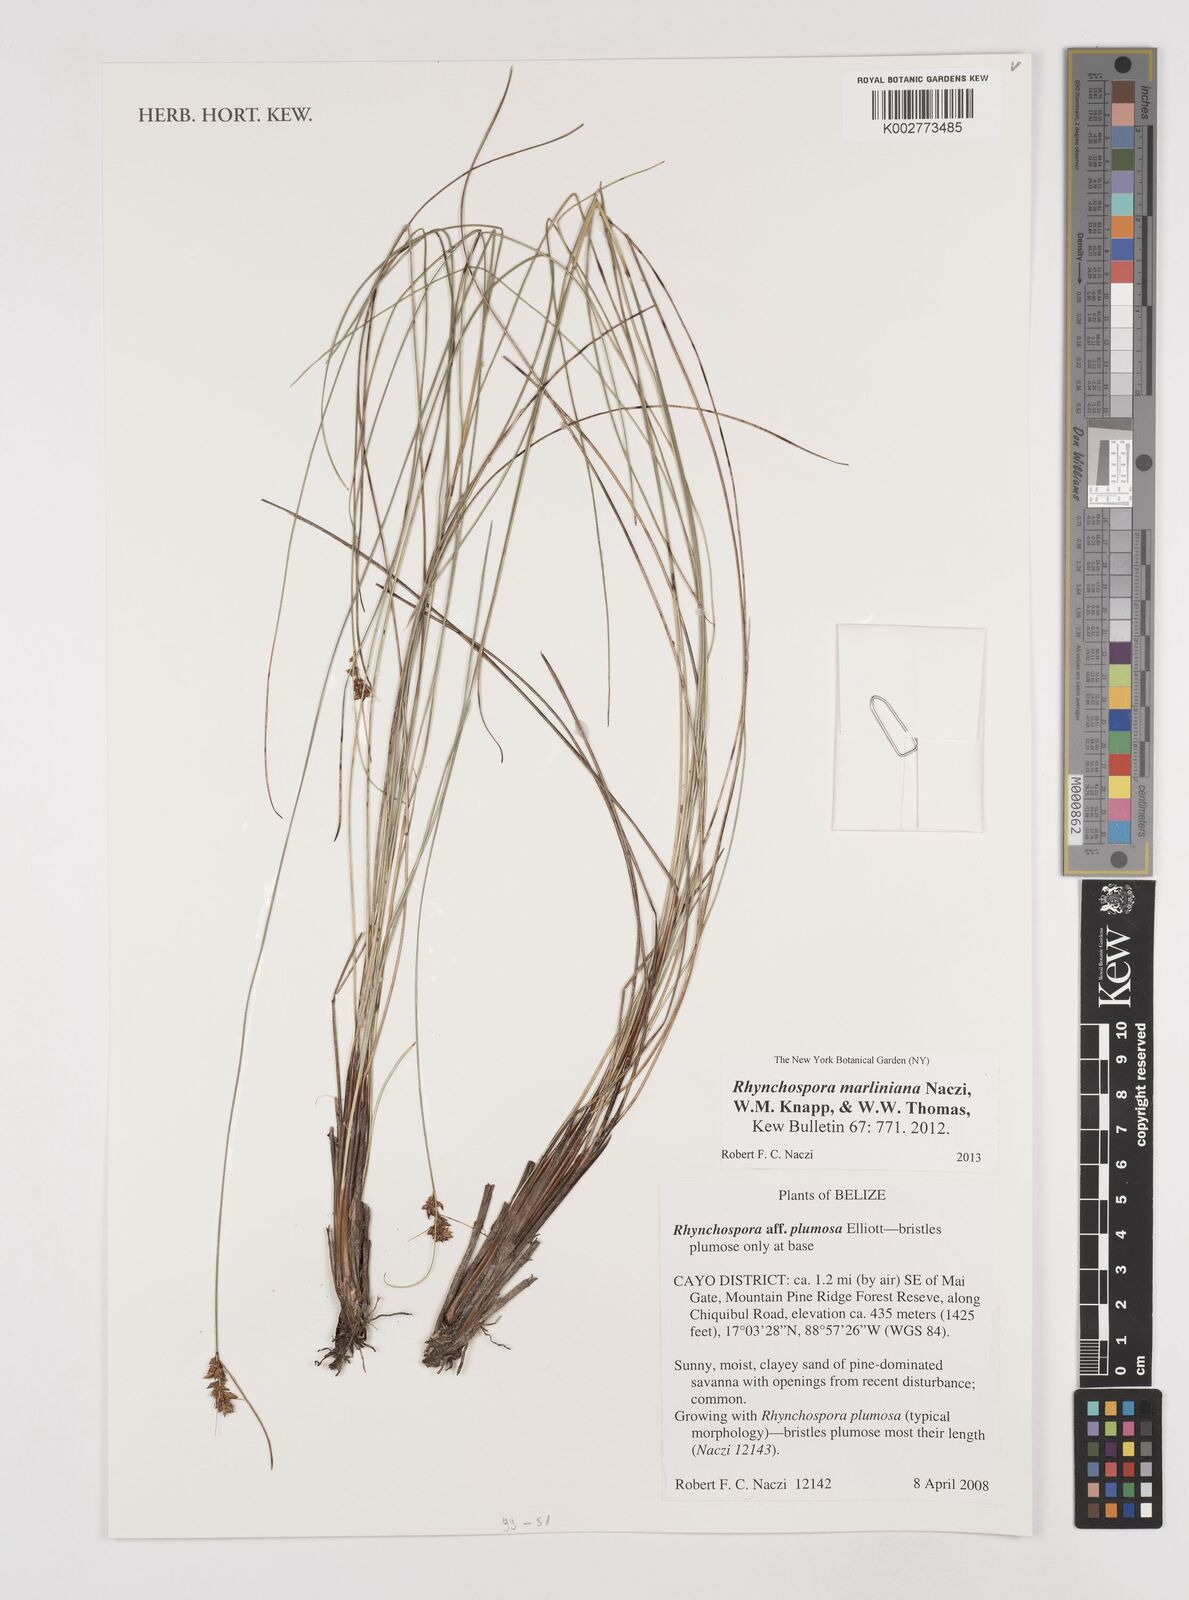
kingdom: Plantae
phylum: Tracheophyta
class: Liliopsida
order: Poales
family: Cyperaceae
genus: Rhynchospora
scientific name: Rhynchospora tenuiflora
